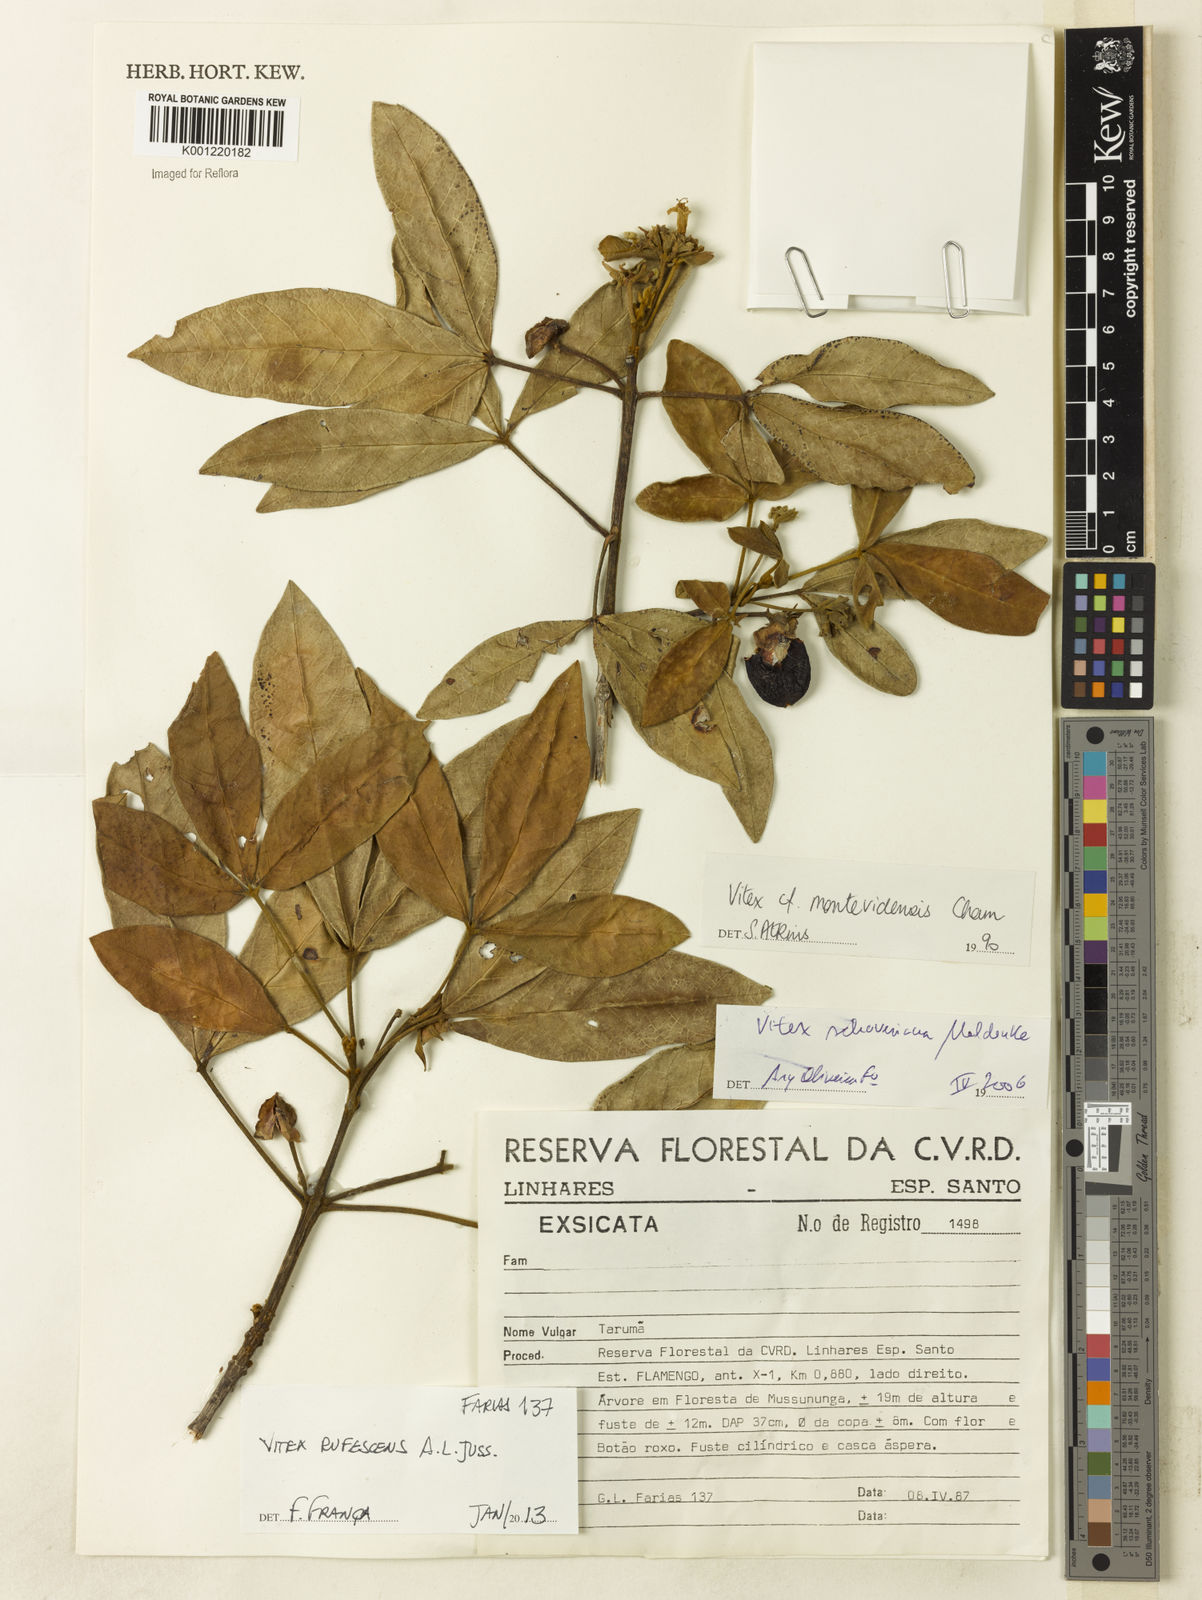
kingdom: Plantae
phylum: Tracheophyta
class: Magnoliopsida
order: Lamiales
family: Lamiaceae
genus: Vitex
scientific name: Vitex rufescens
